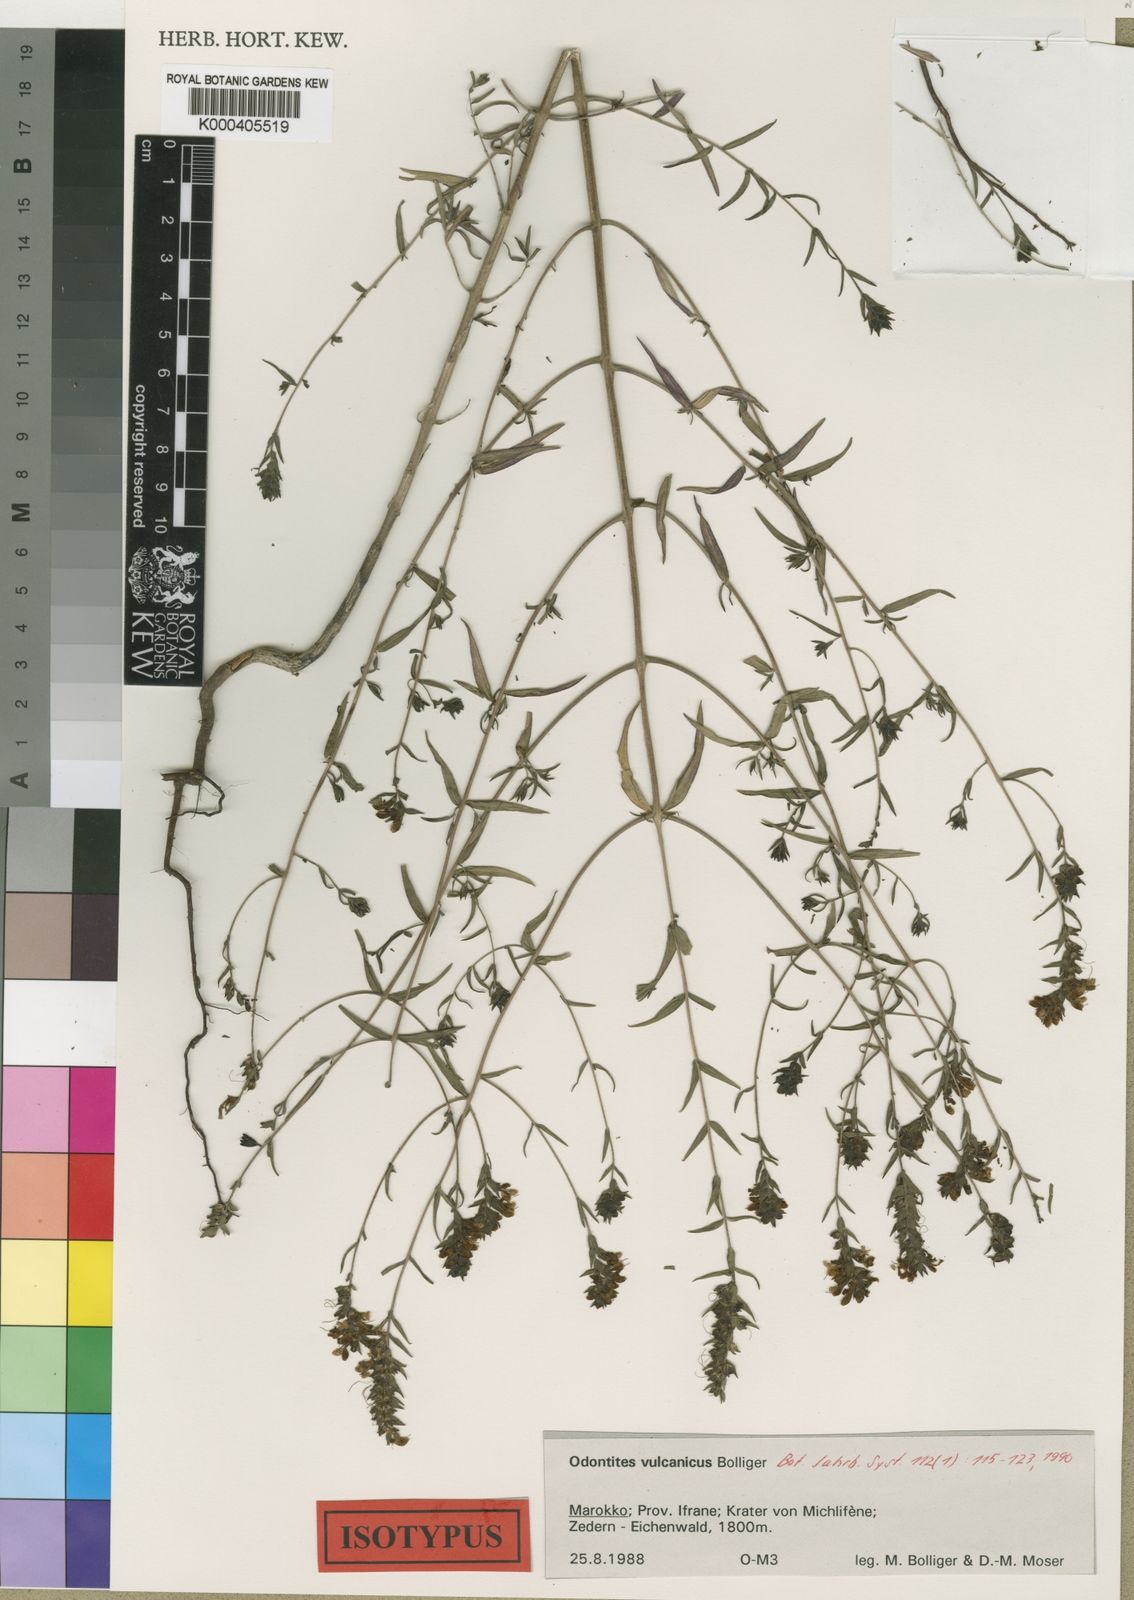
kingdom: Plantae
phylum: Tracheophyta
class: Magnoliopsida
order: Lamiales
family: Orobanchaceae
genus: Odontites
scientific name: Odontites vulcanicus
